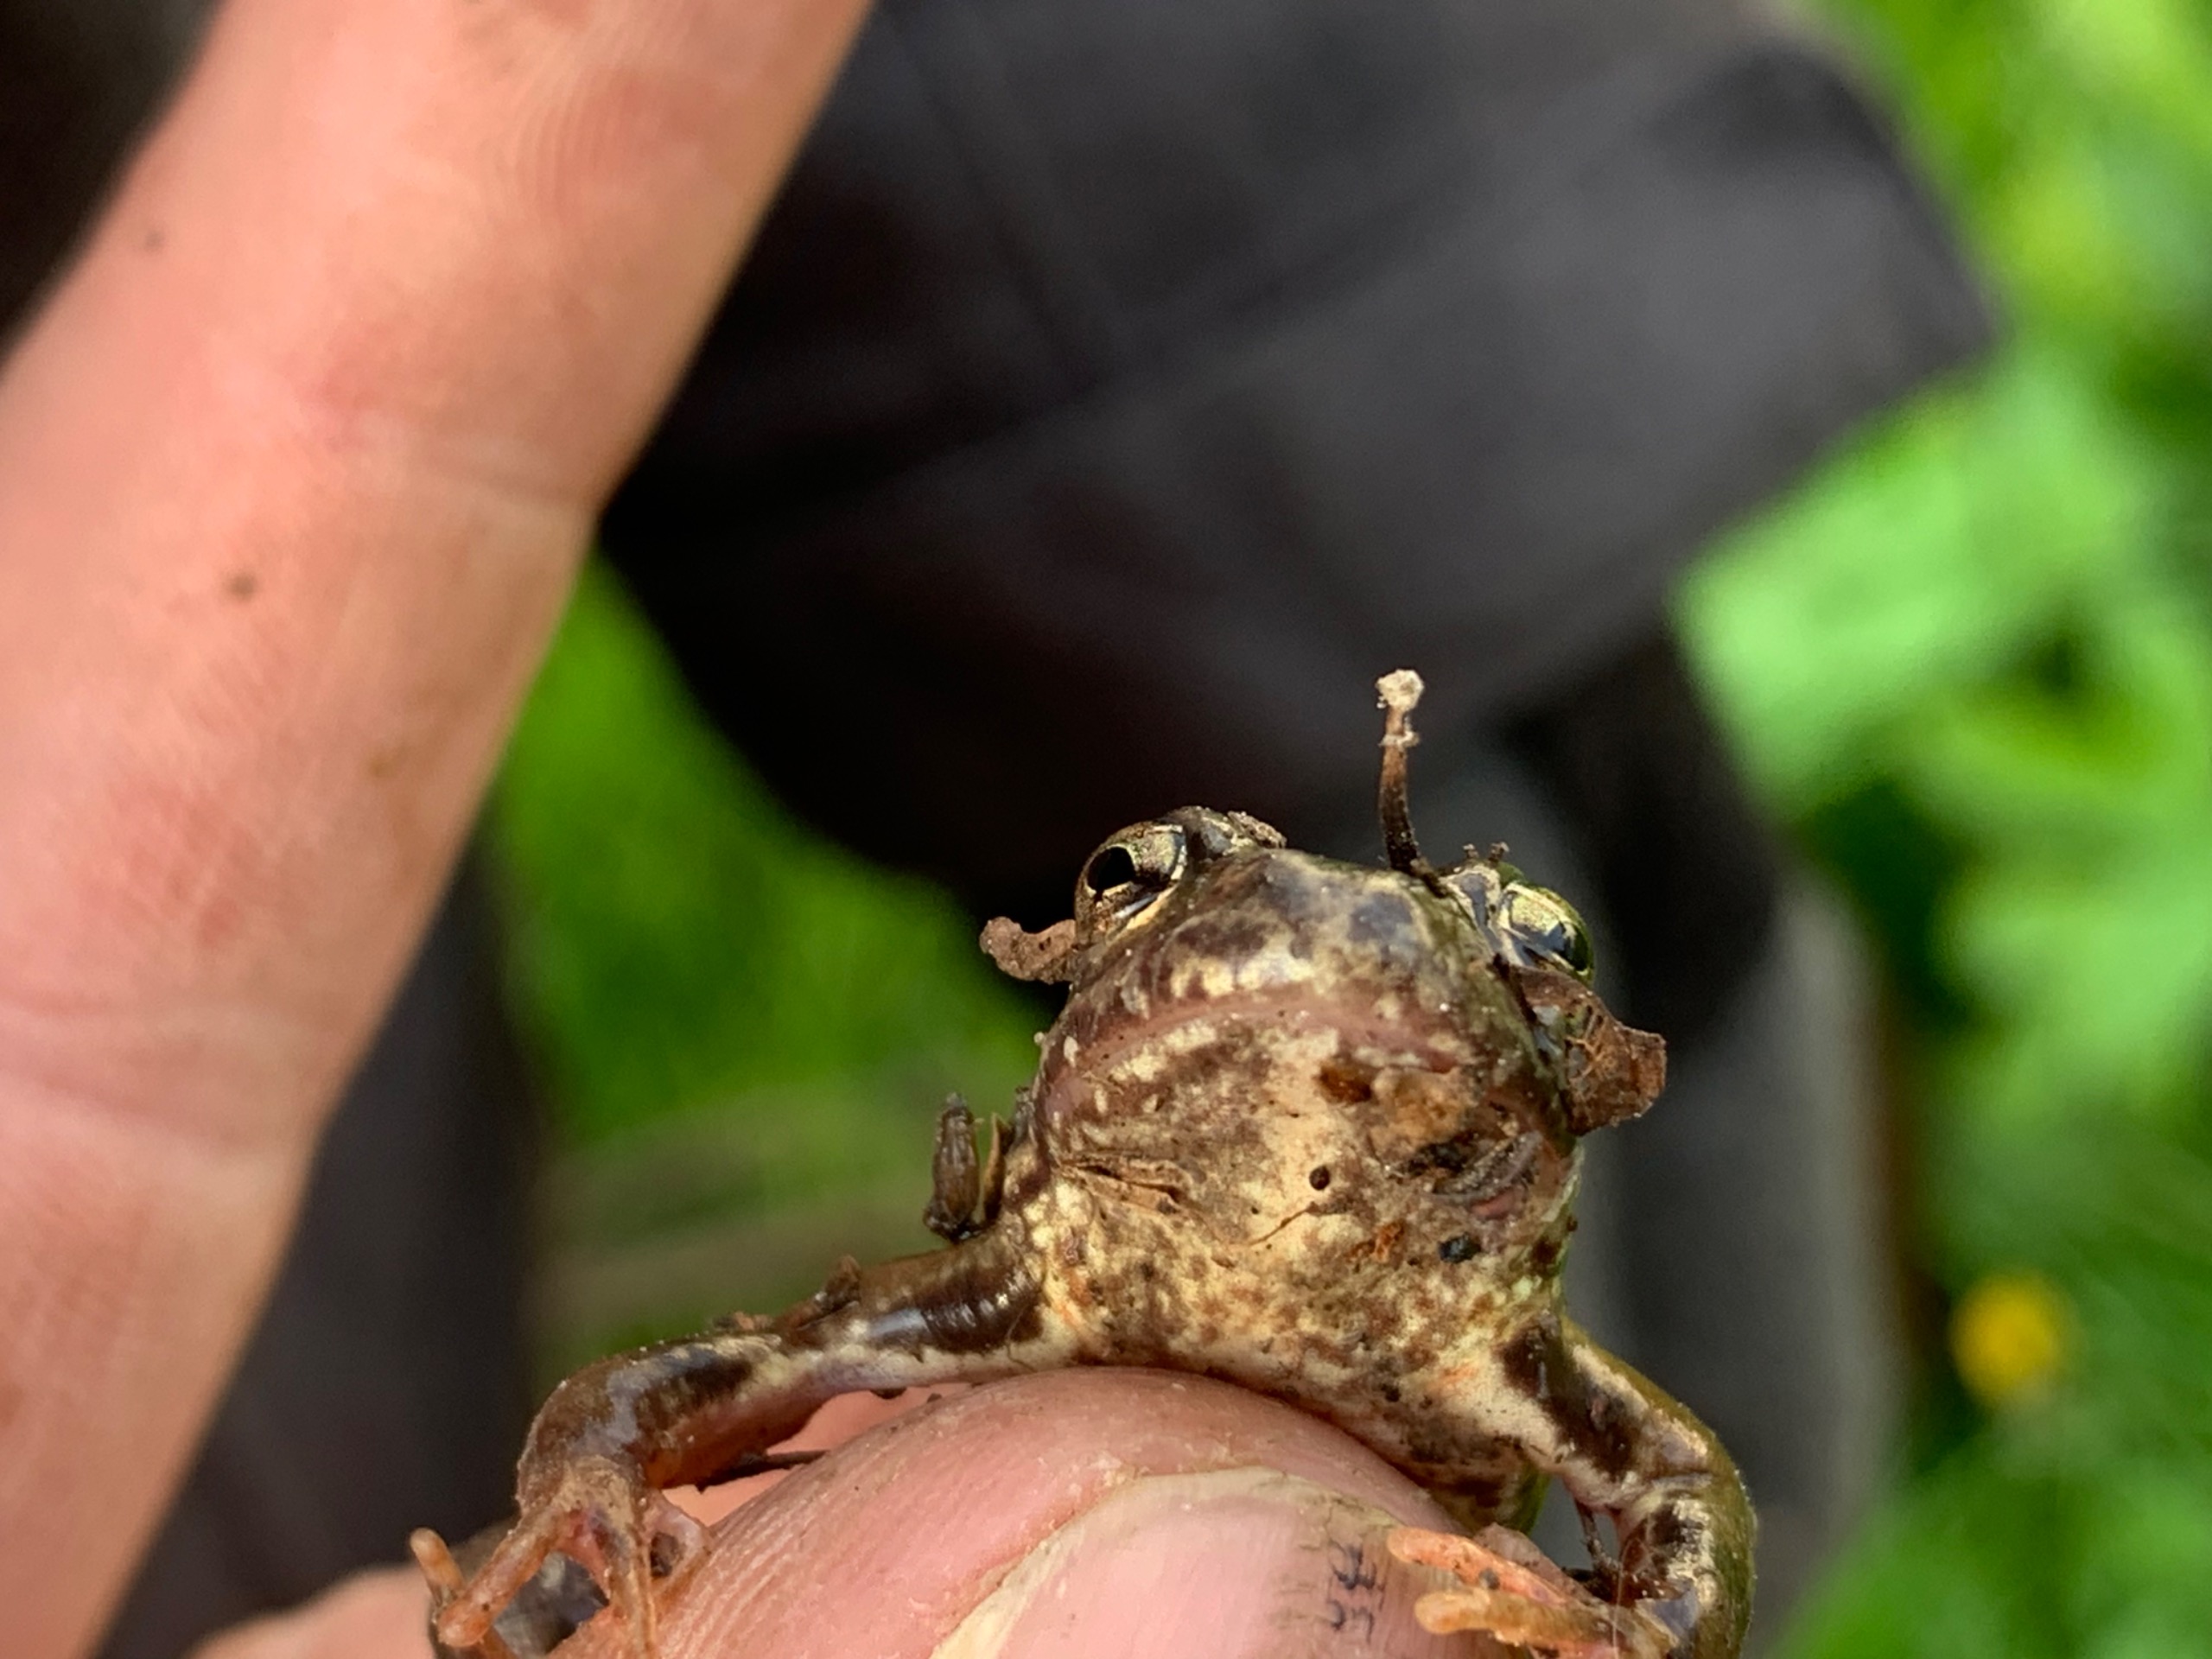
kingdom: Animalia
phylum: Chordata
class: Amphibia
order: Anura
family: Ranidae
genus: Rana
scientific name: Rana temporaria
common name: Butsnudet frø
